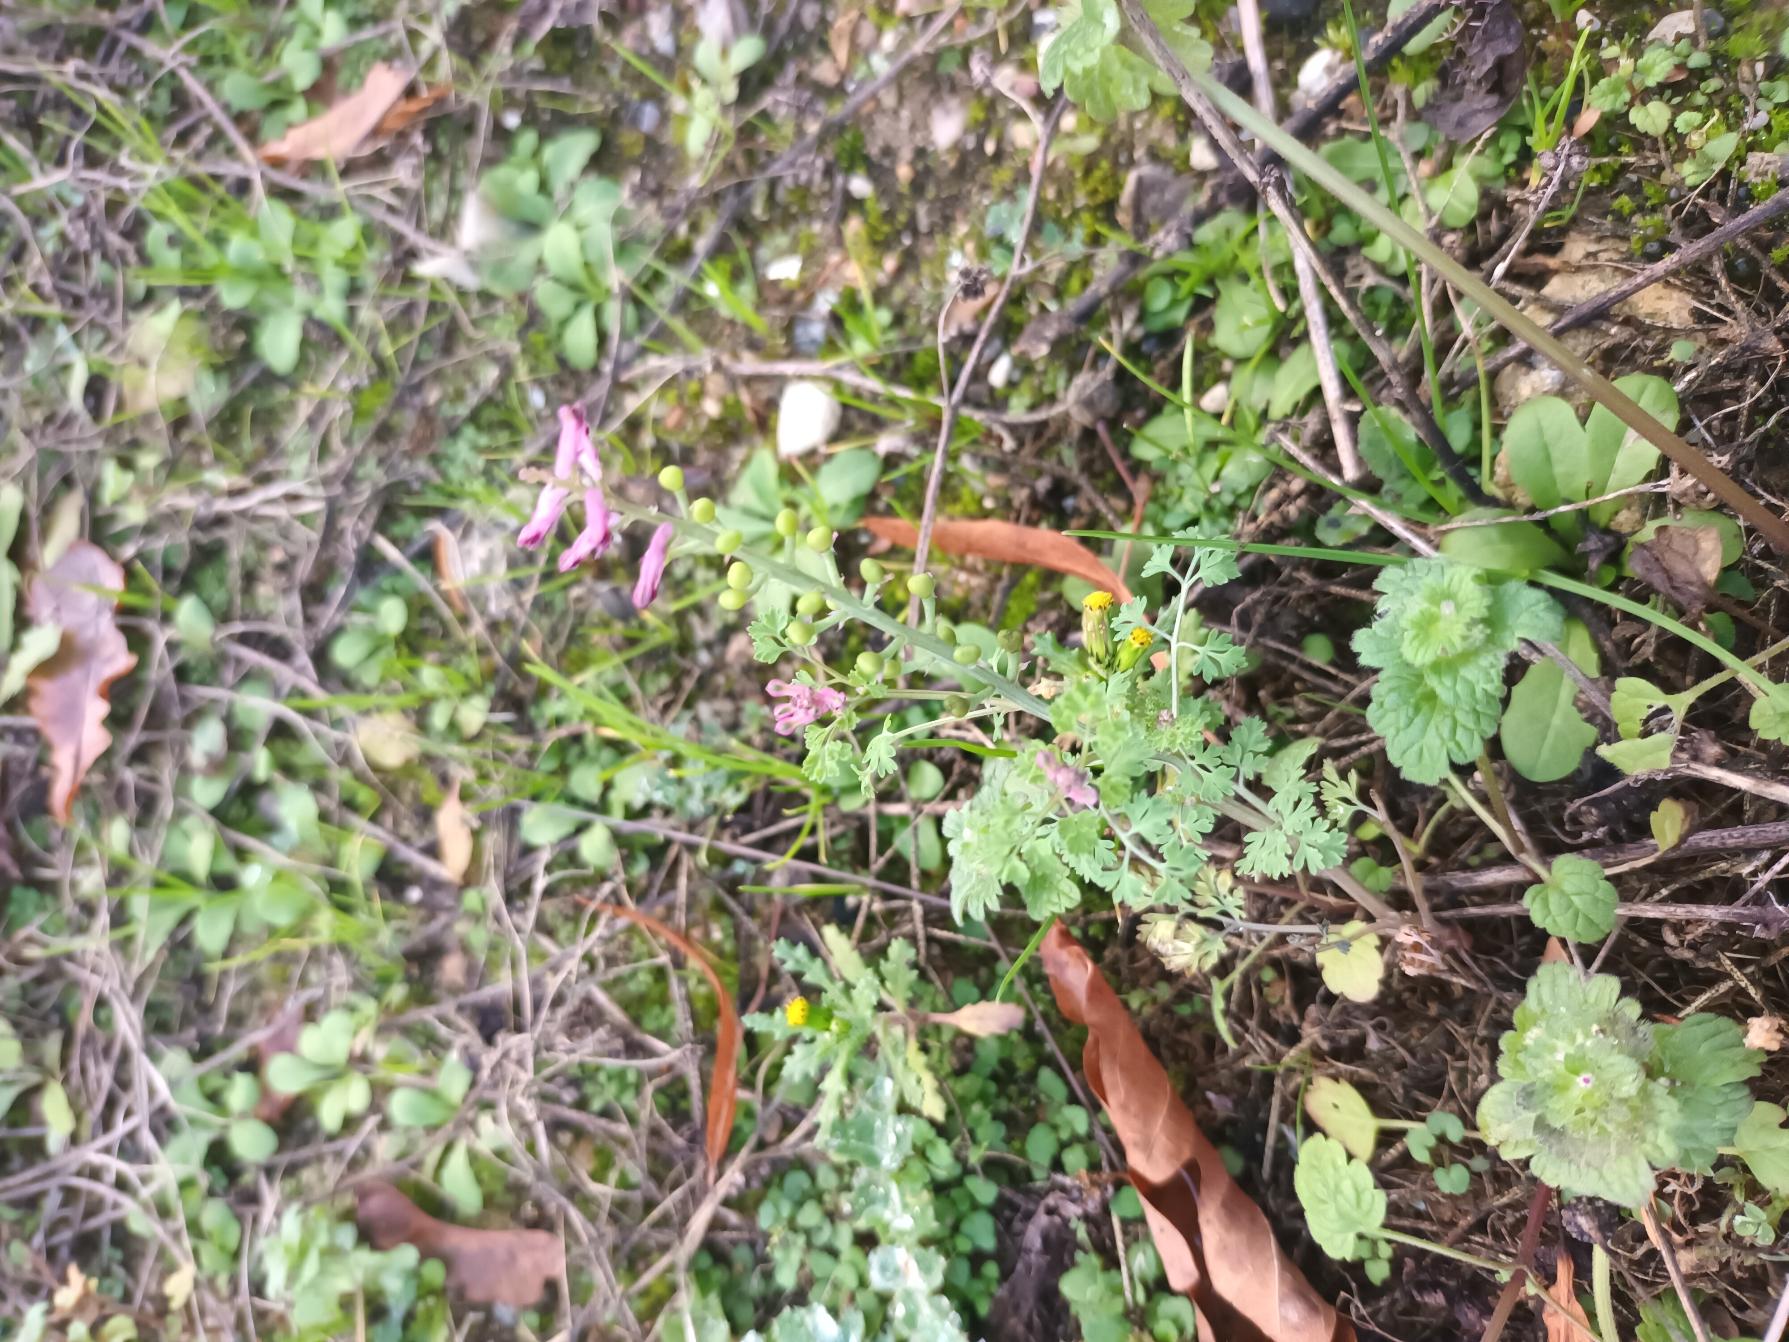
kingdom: Plantae
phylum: Tracheophyta
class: Magnoliopsida
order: Ranunculales
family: Papaveraceae
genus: Fumaria
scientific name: Fumaria officinalis
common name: Læge-jordrøg
